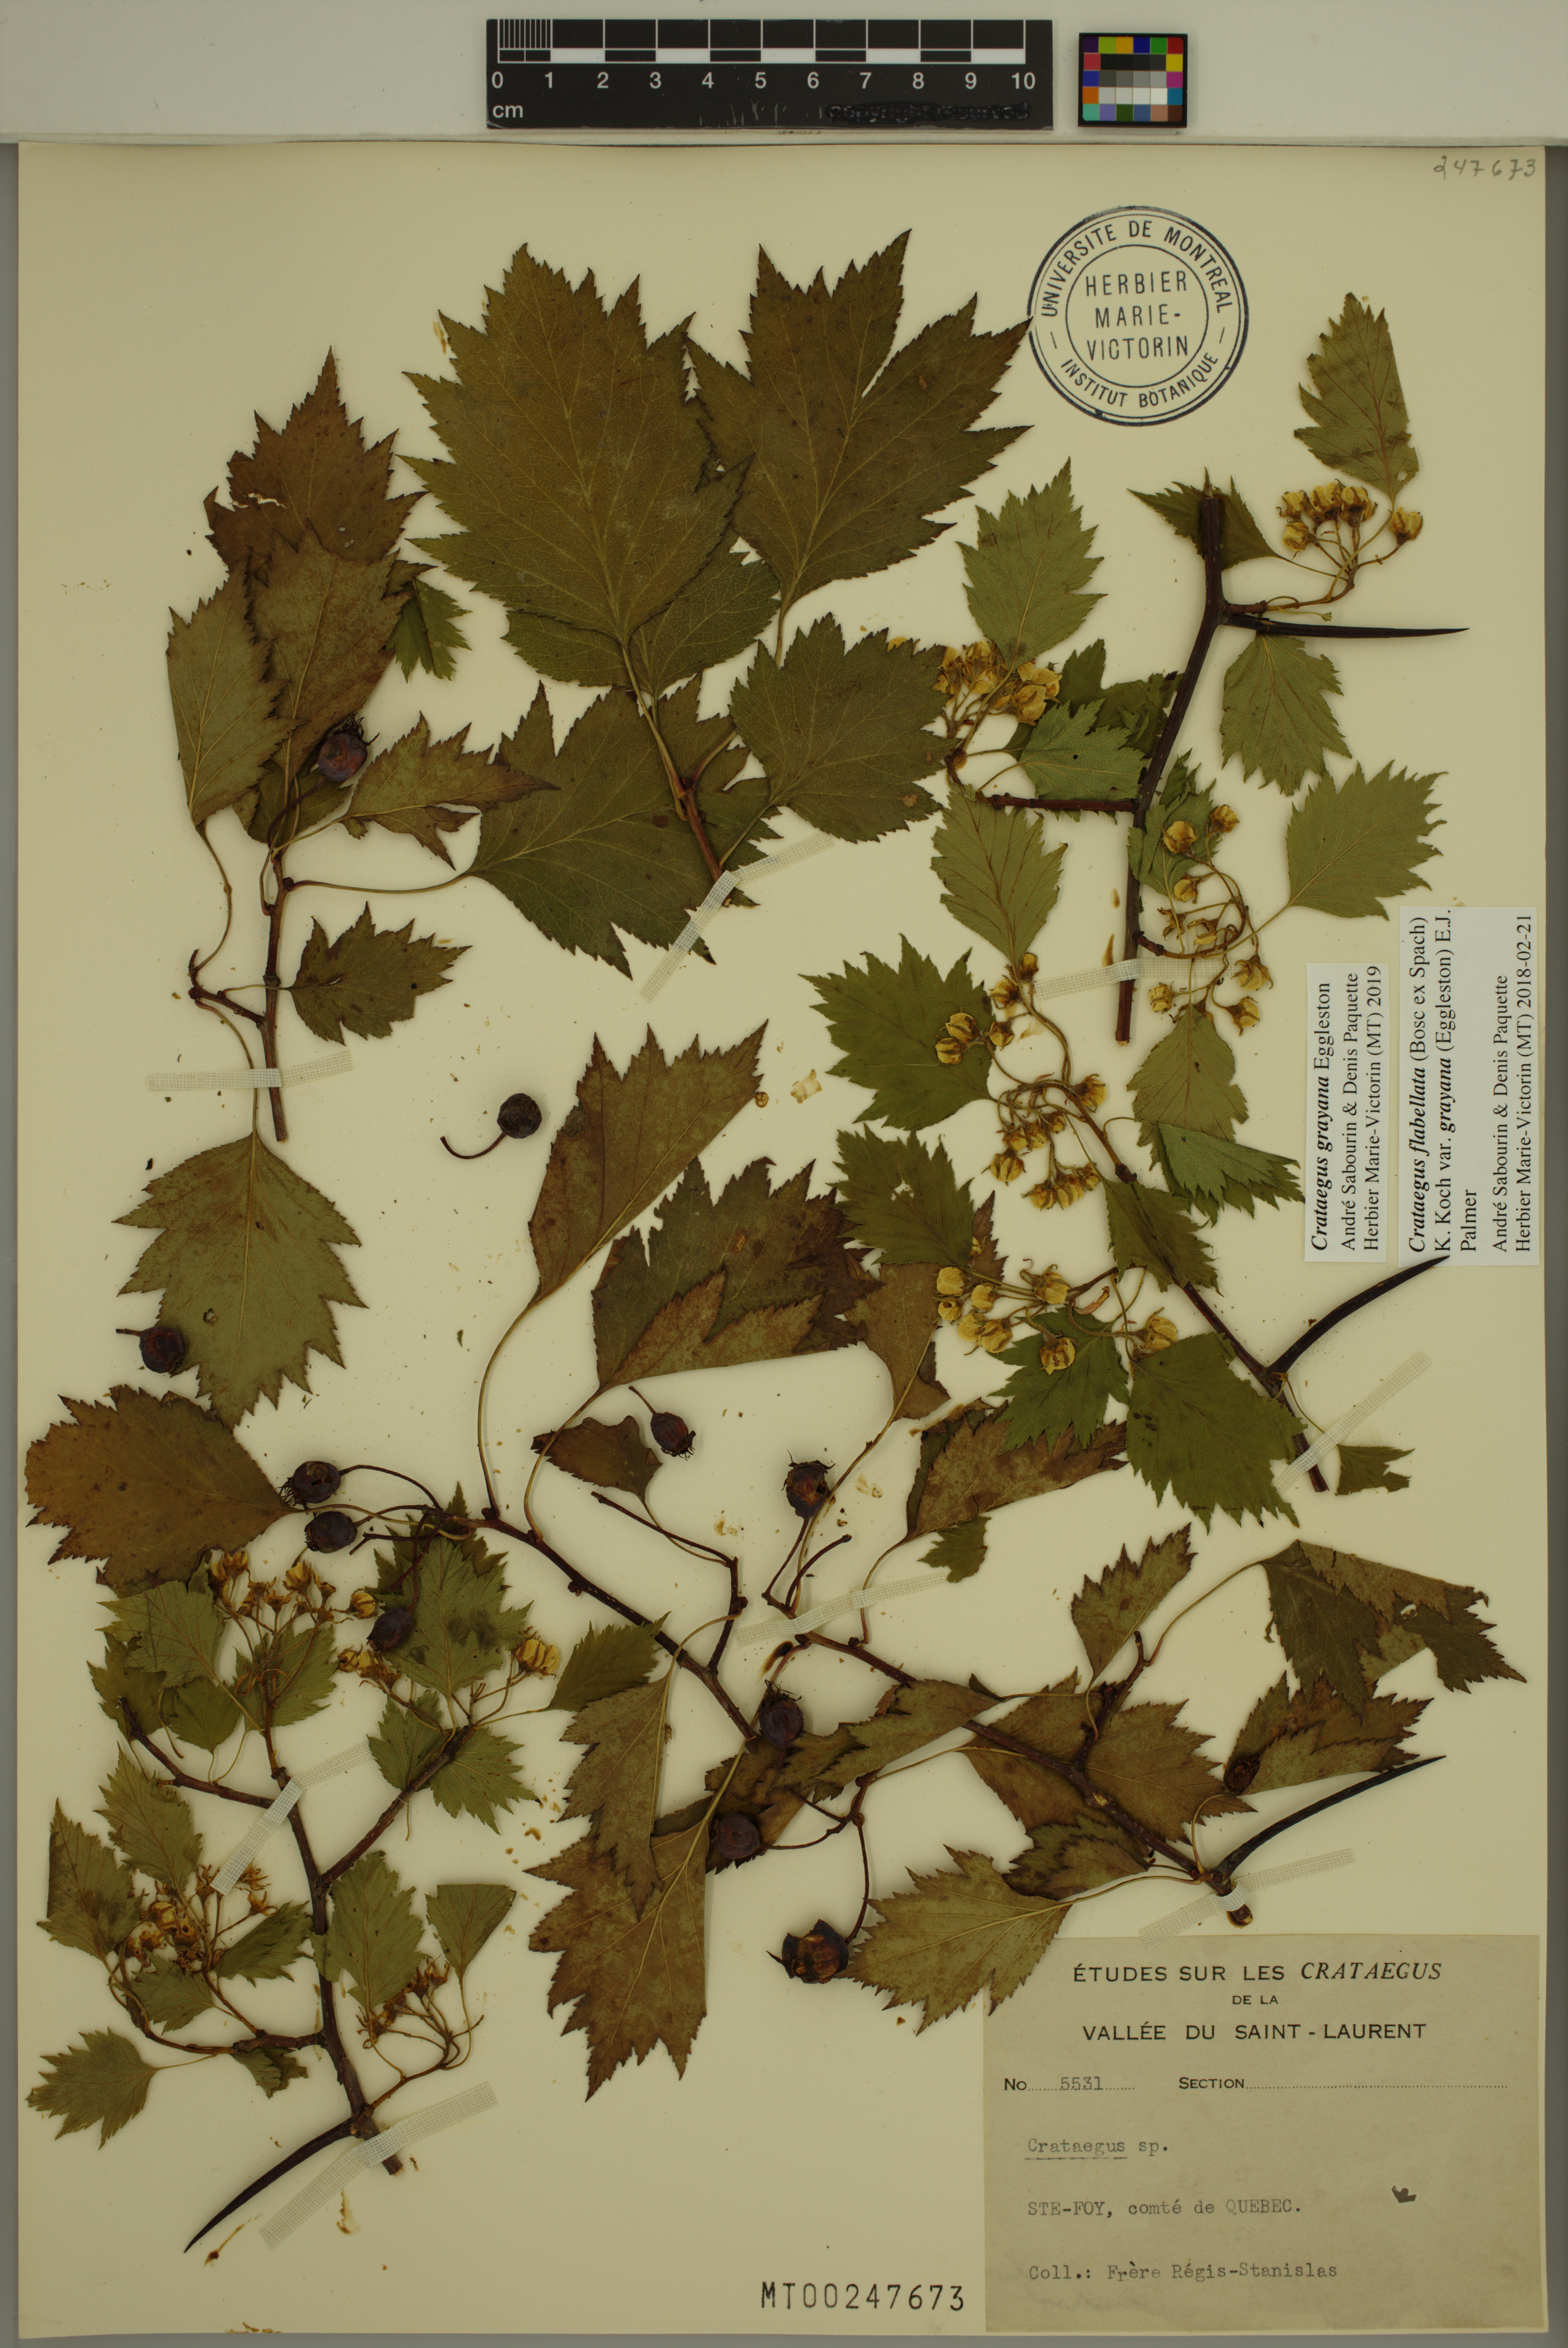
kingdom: Plantae
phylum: Tracheophyta
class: Magnoliopsida
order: Rosales
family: Rosaceae
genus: Crataegus
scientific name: Crataegus schuettei
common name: Schuette's hawthorn
